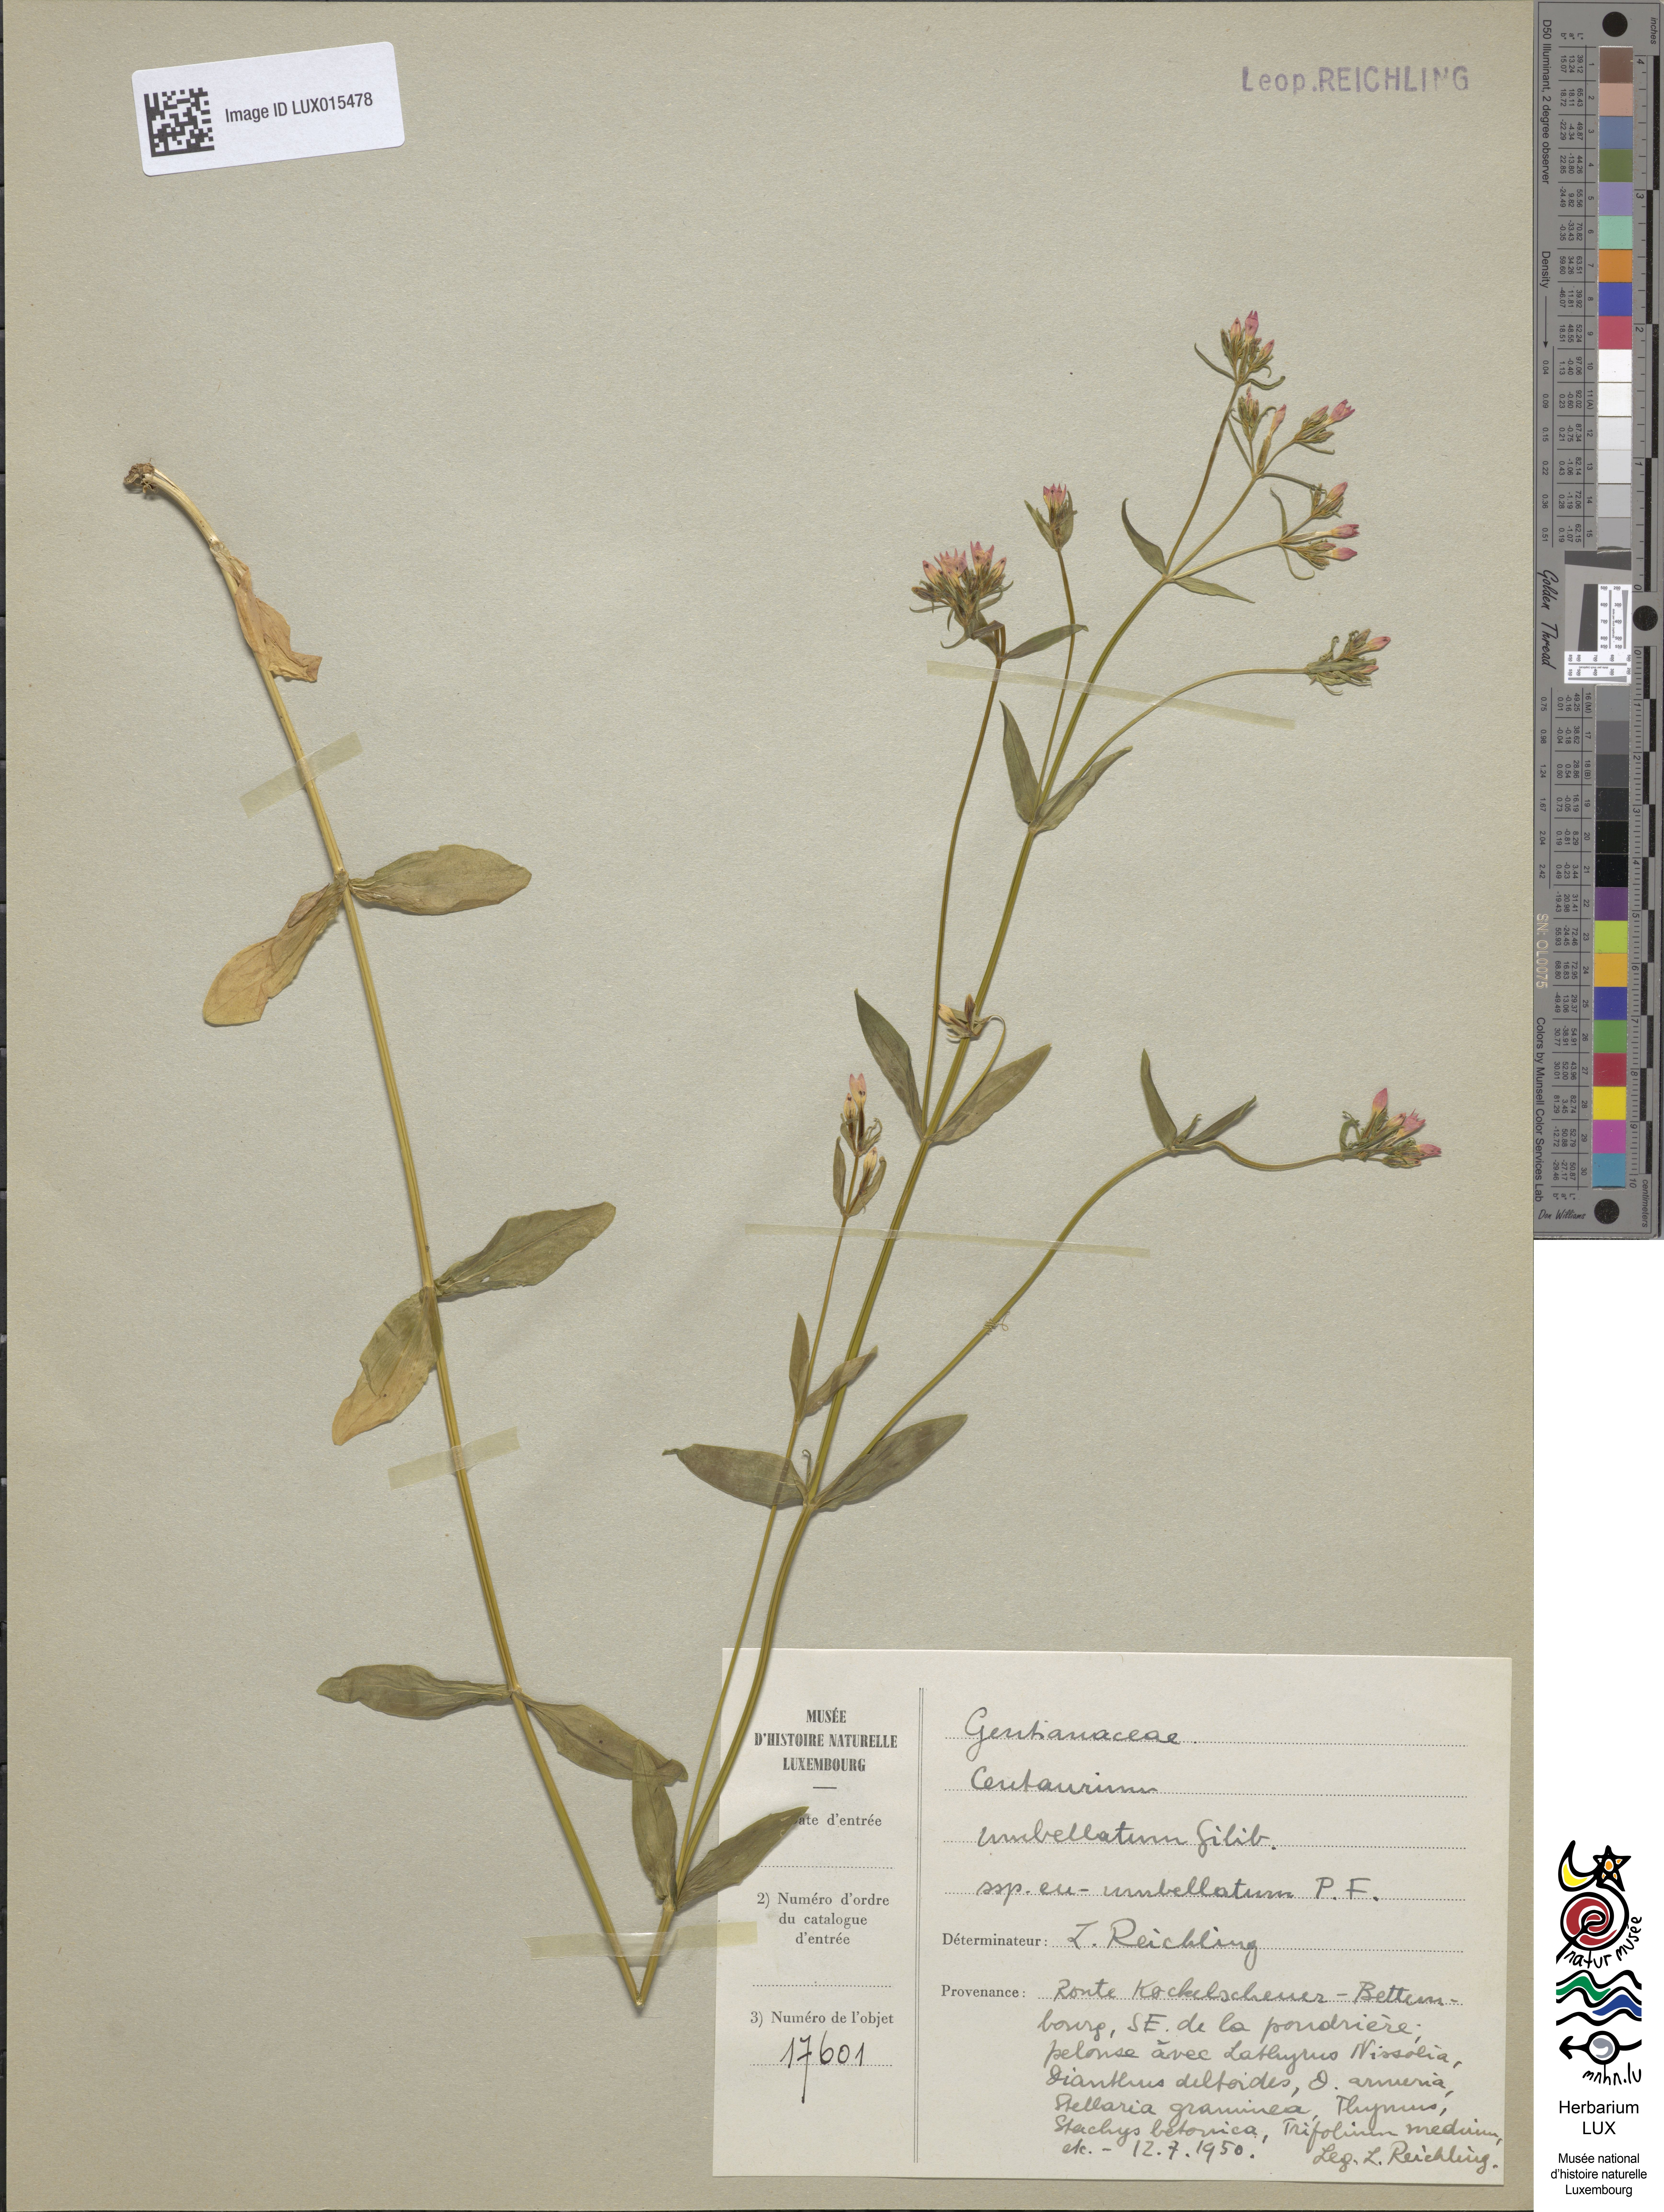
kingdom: Plantae
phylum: Tracheophyta
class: Magnoliopsida
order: Gentianales
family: Gentianaceae
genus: Centaurium
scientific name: Centaurium erythraea
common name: Common centaury
